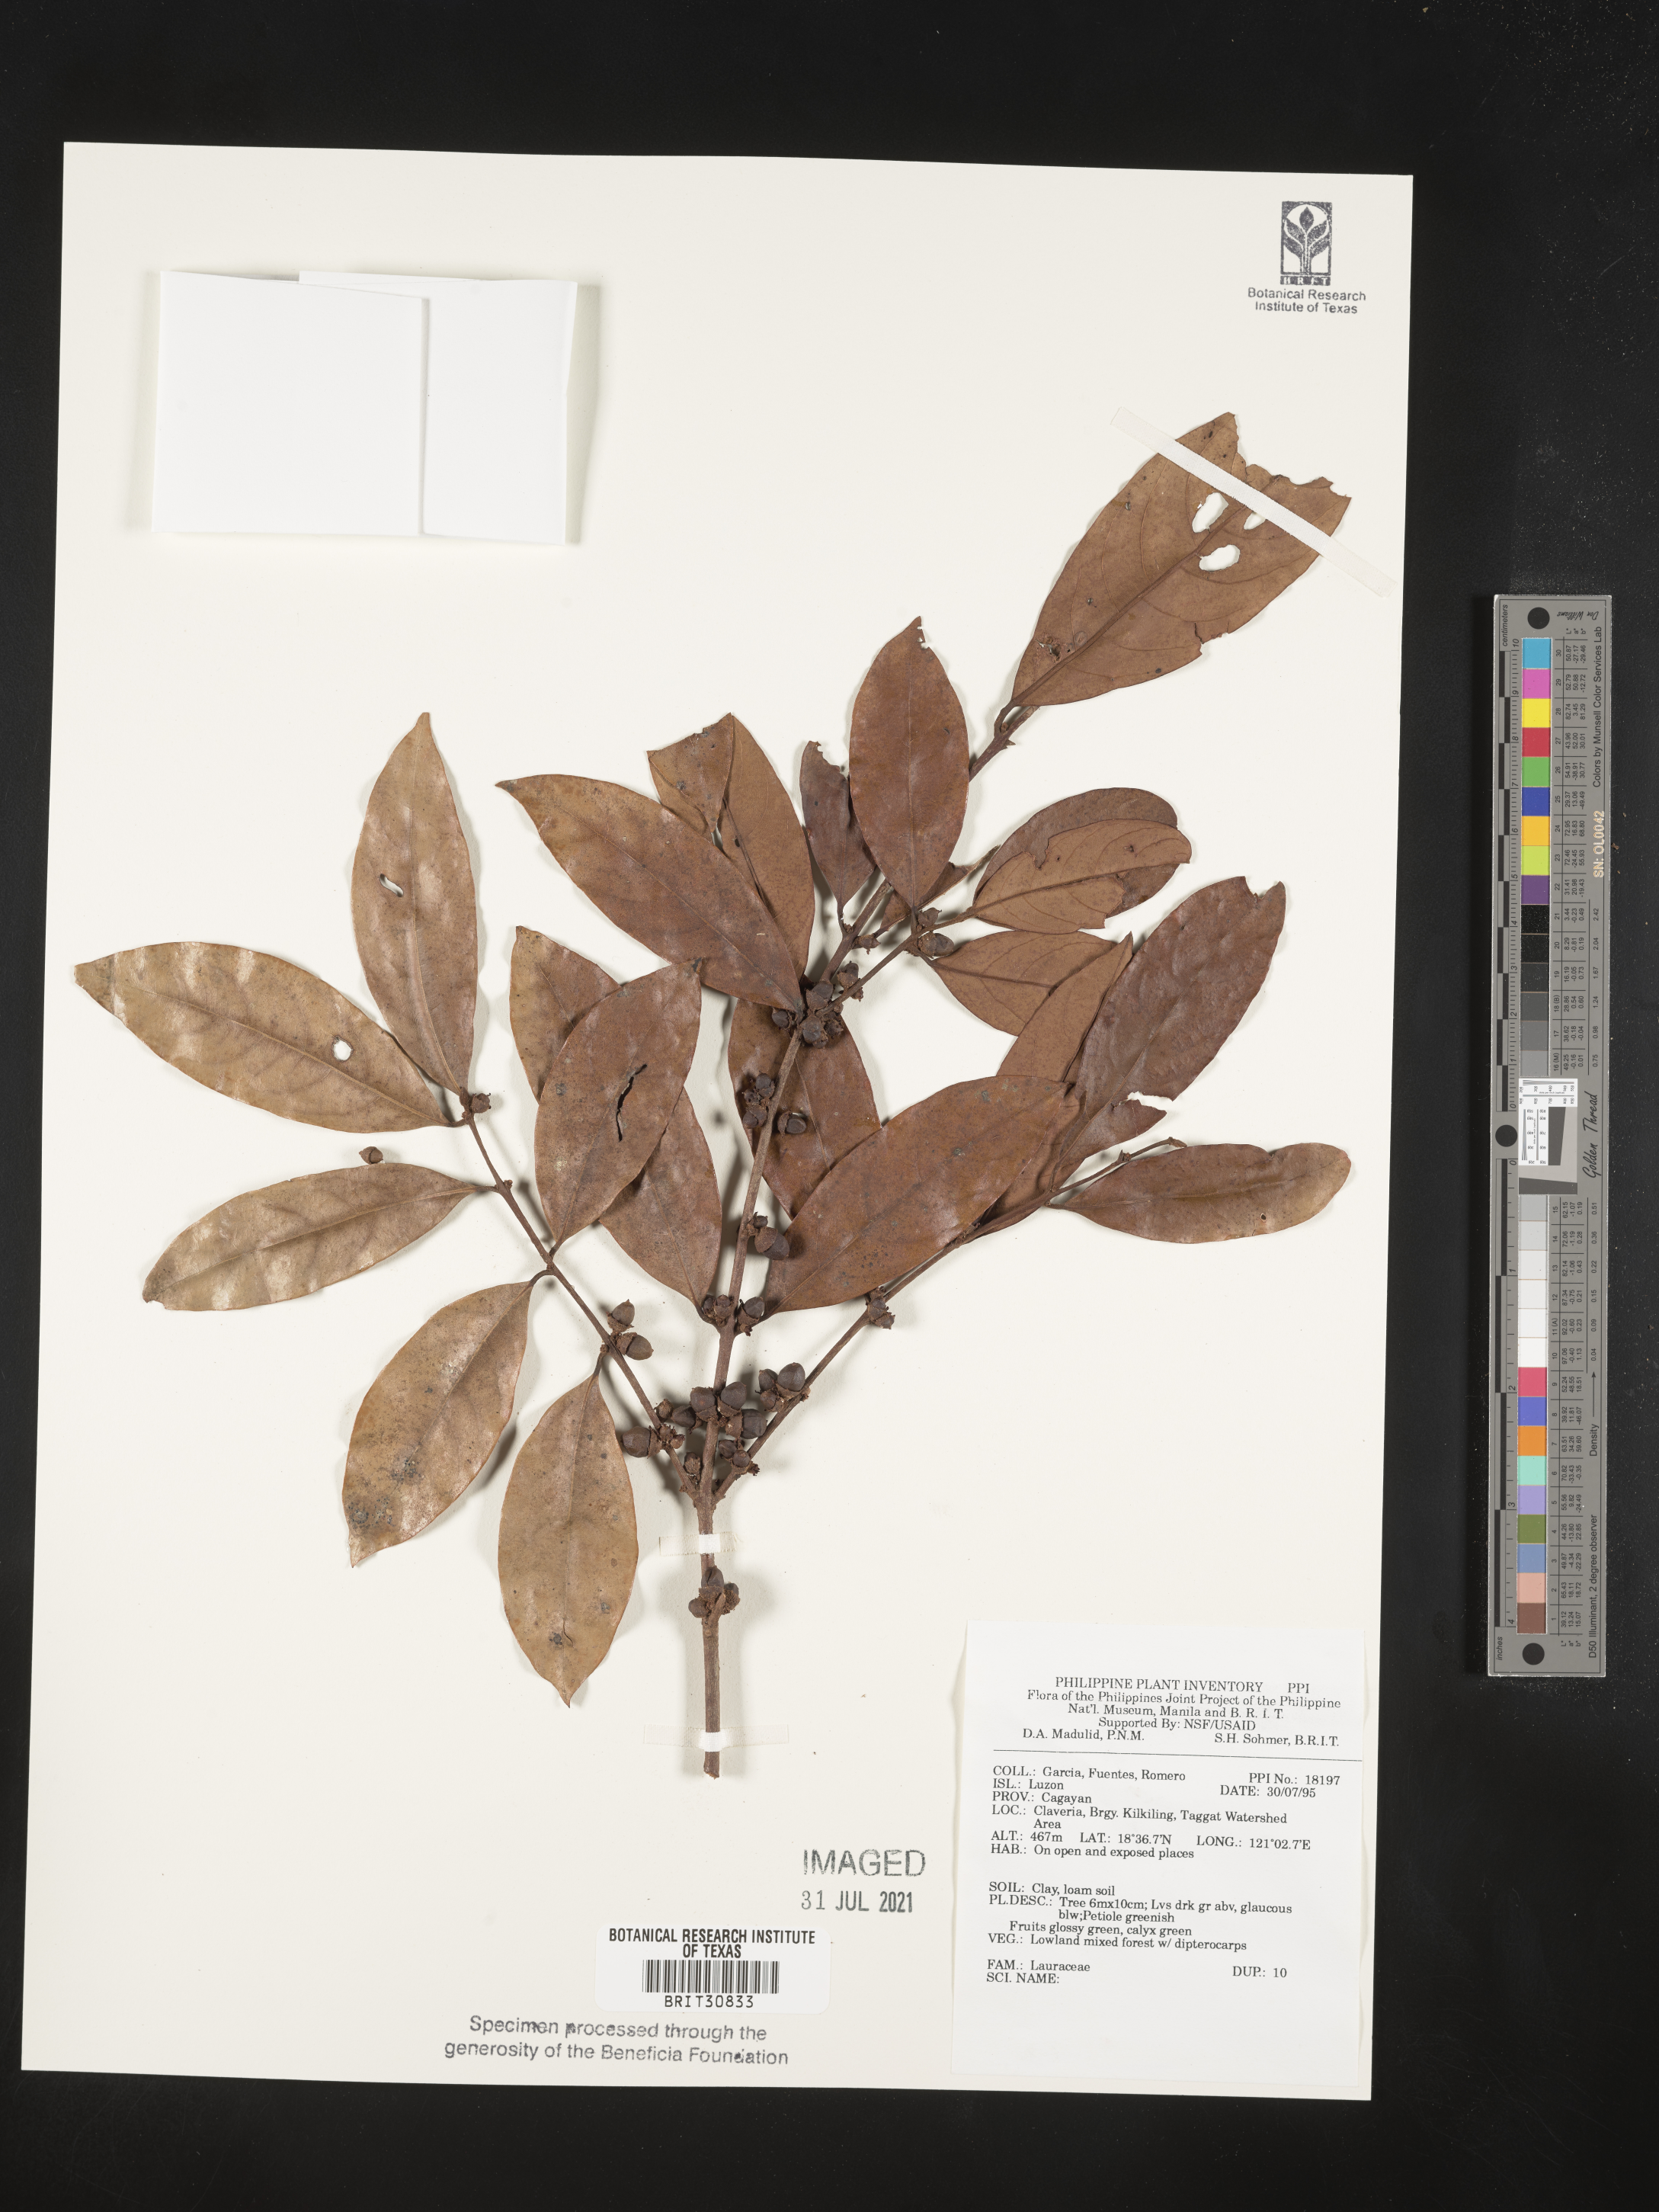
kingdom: Plantae
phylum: Tracheophyta
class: Magnoliopsida
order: Laurales
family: Lauraceae
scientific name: Lauraceae
